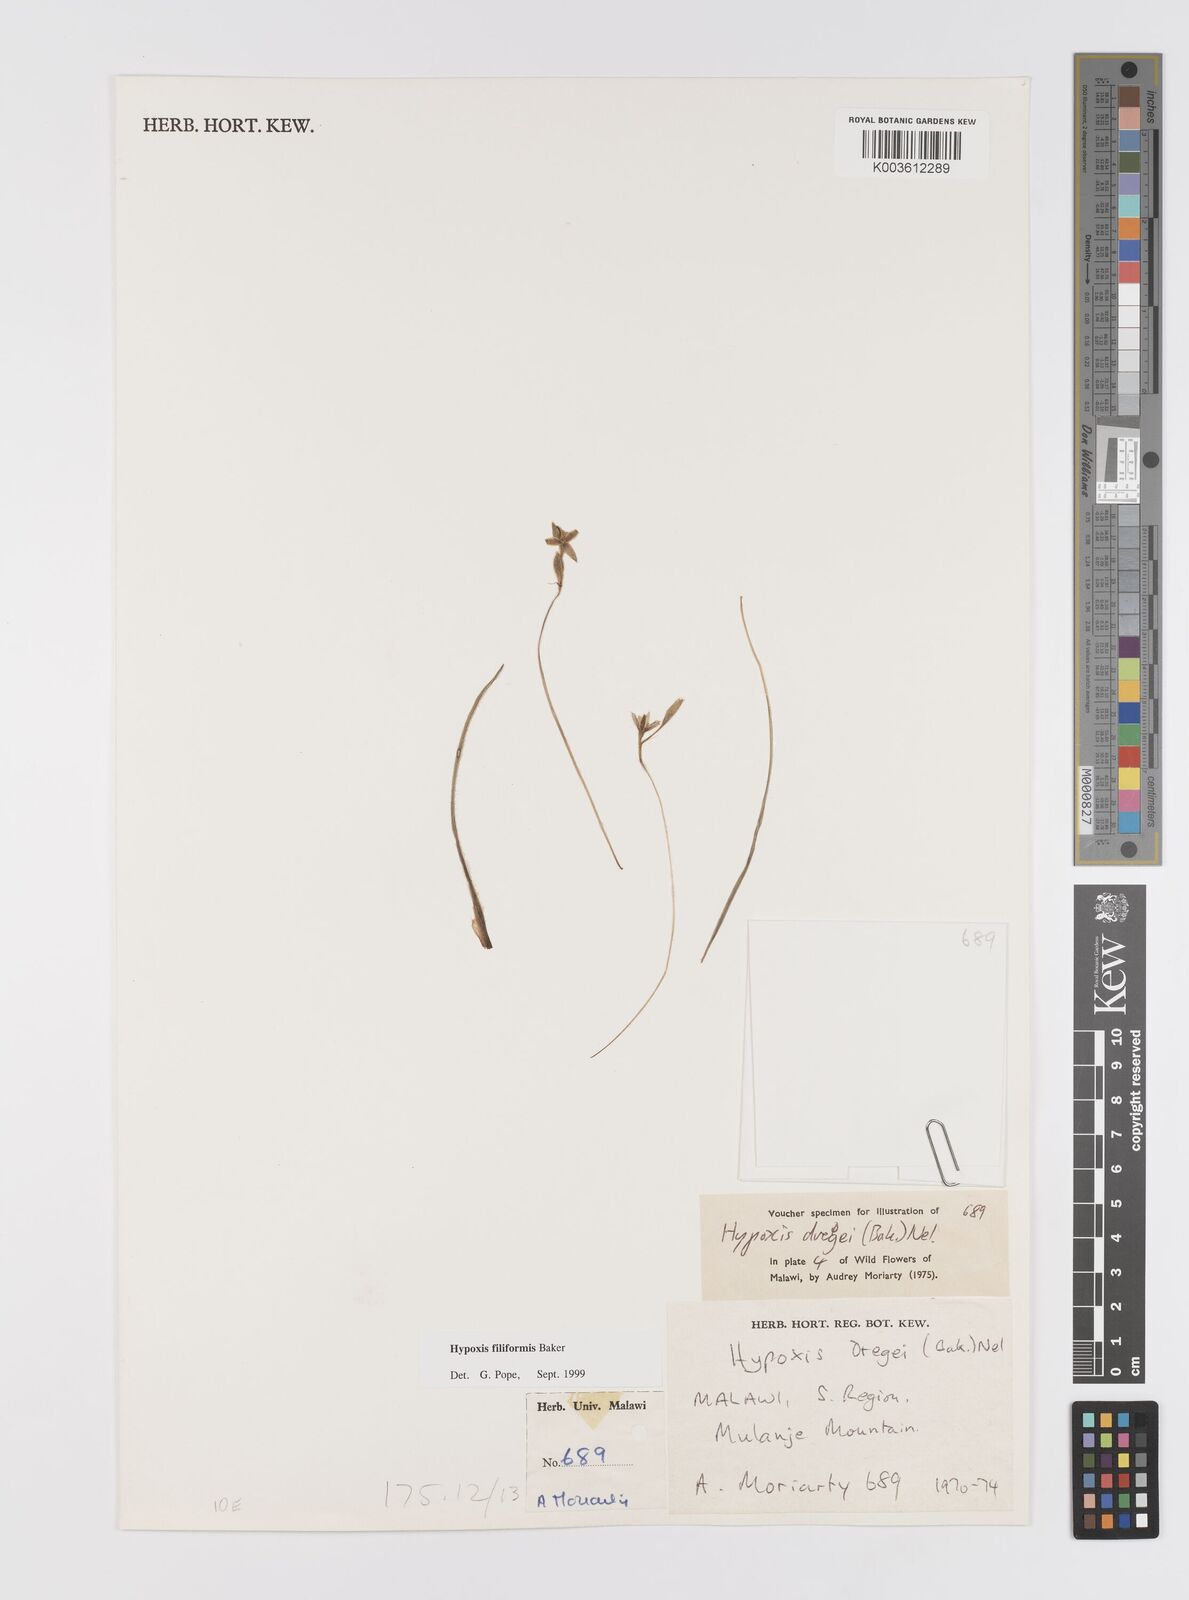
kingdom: Plantae
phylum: Tracheophyta
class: Liliopsida
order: Asparagales
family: Hypoxidaceae
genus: Hypoxis
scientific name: Hypoxis filiformis
